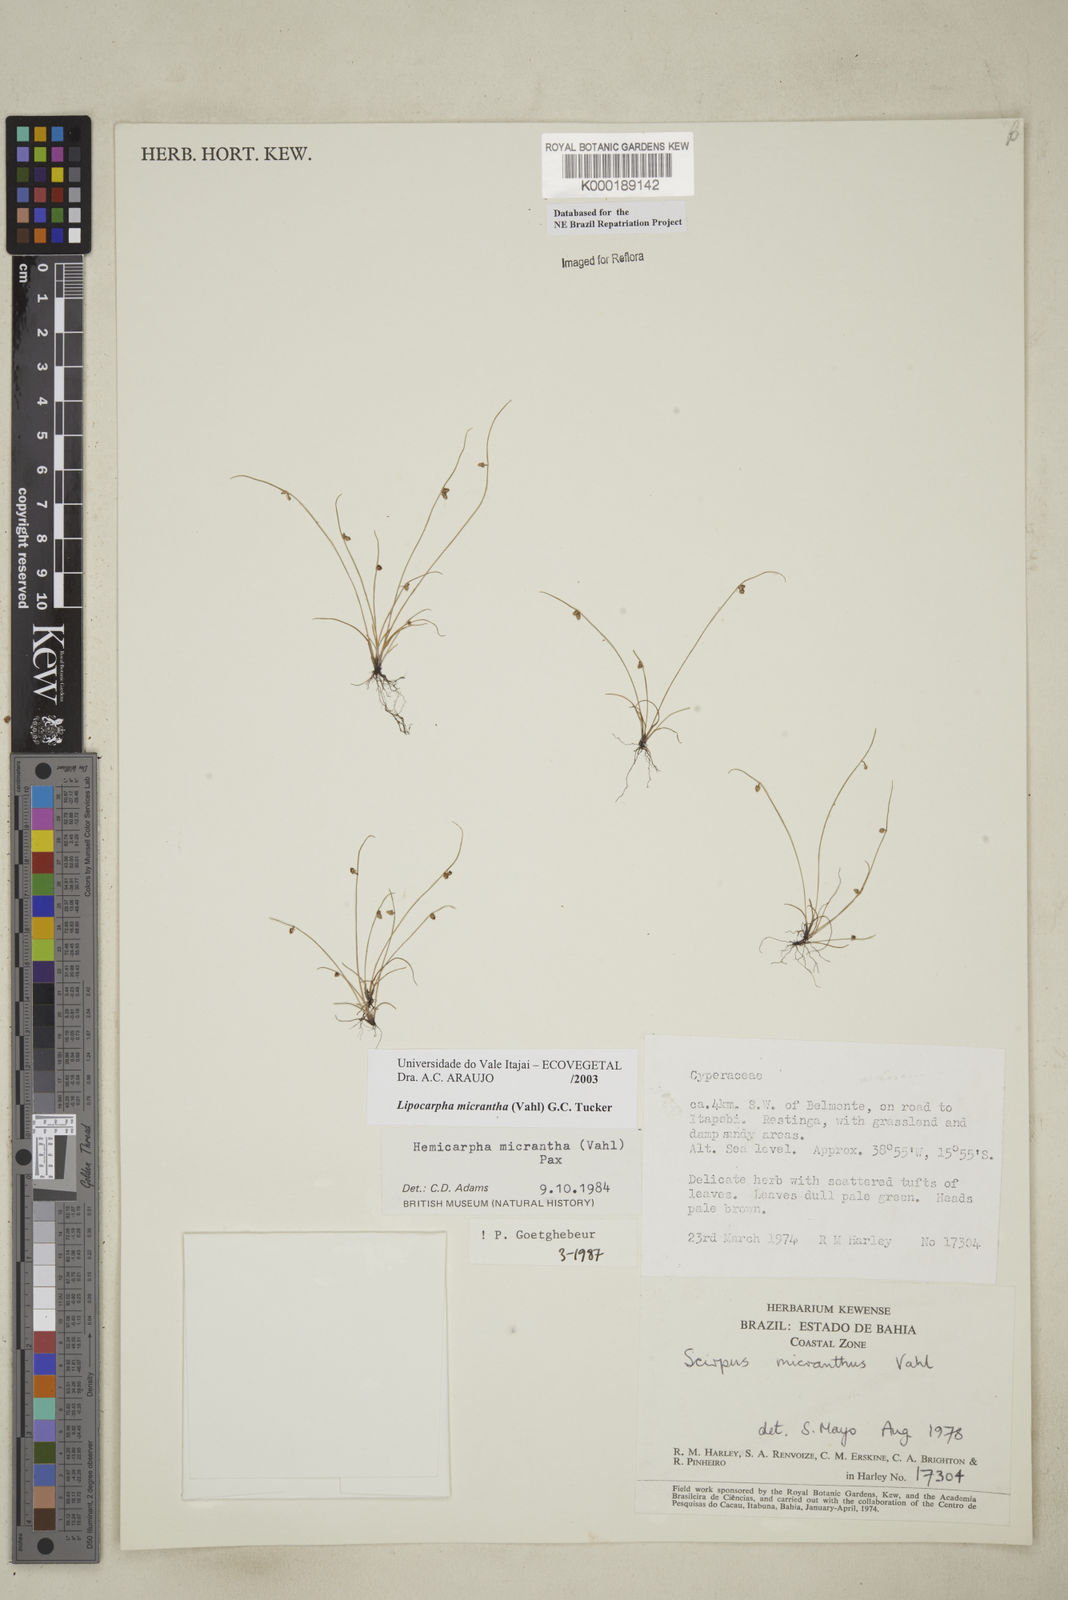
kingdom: Plantae
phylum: Tracheophyta
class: Liliopsida
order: Poales
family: Cyperaceae
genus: Cyperus
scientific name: Cyperus subsquarrosus
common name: Dwarf bulrush
